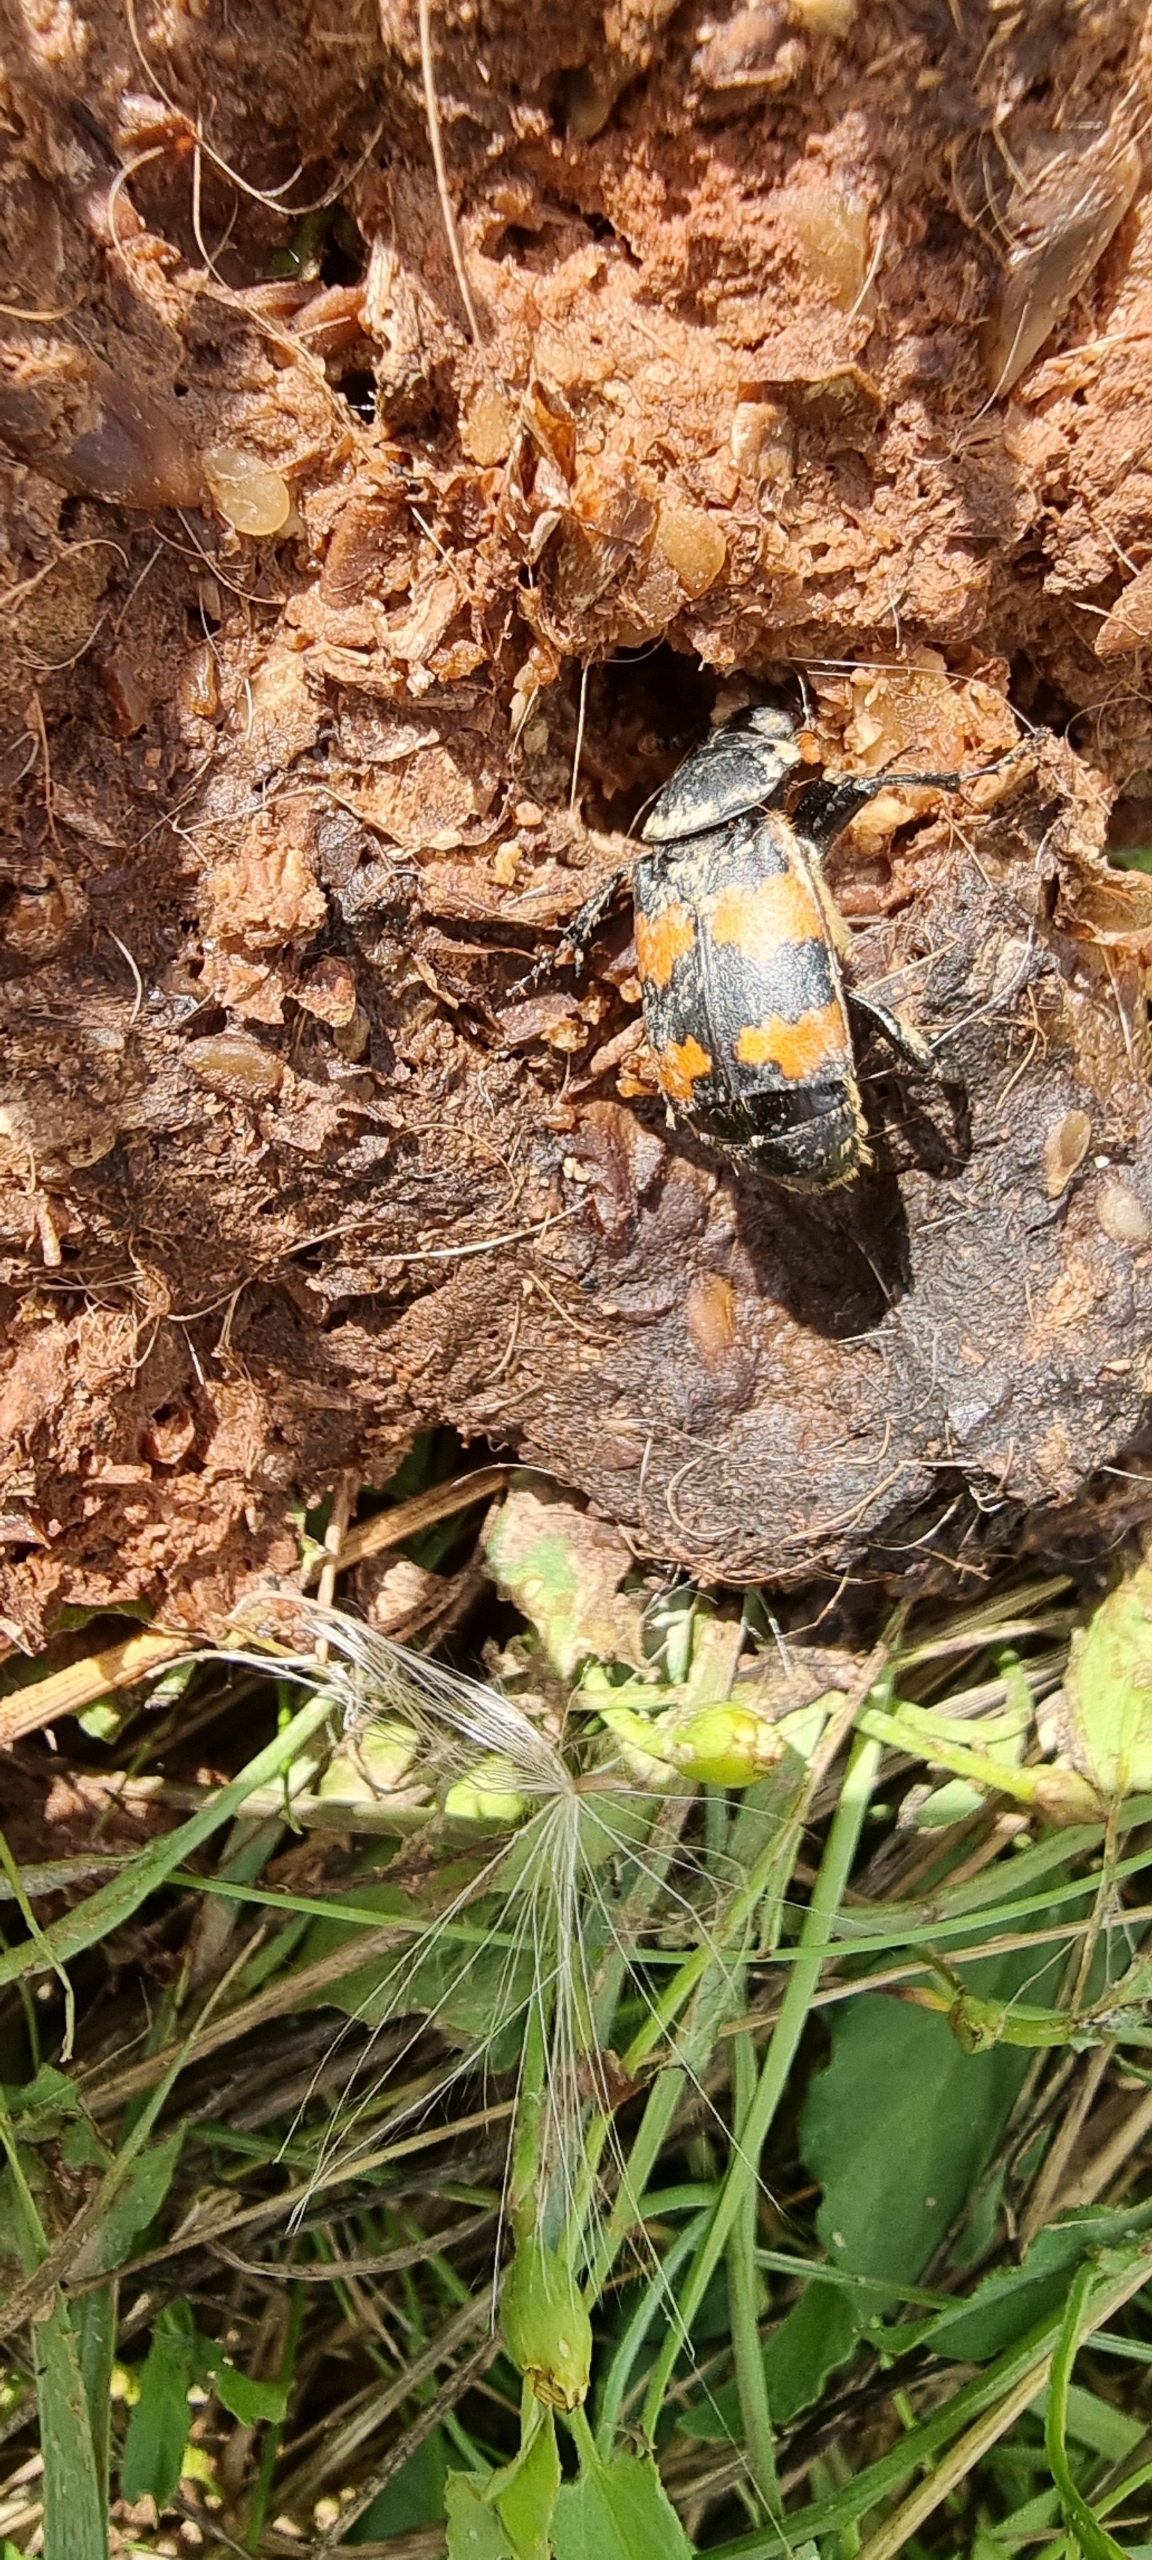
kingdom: Animalia
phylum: Arthropoda
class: Insecta
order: Coleoptera
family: Staphylinidae
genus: Nicrophorus
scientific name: Nicrophorus vespillo
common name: Krumbenet ådselgraver
